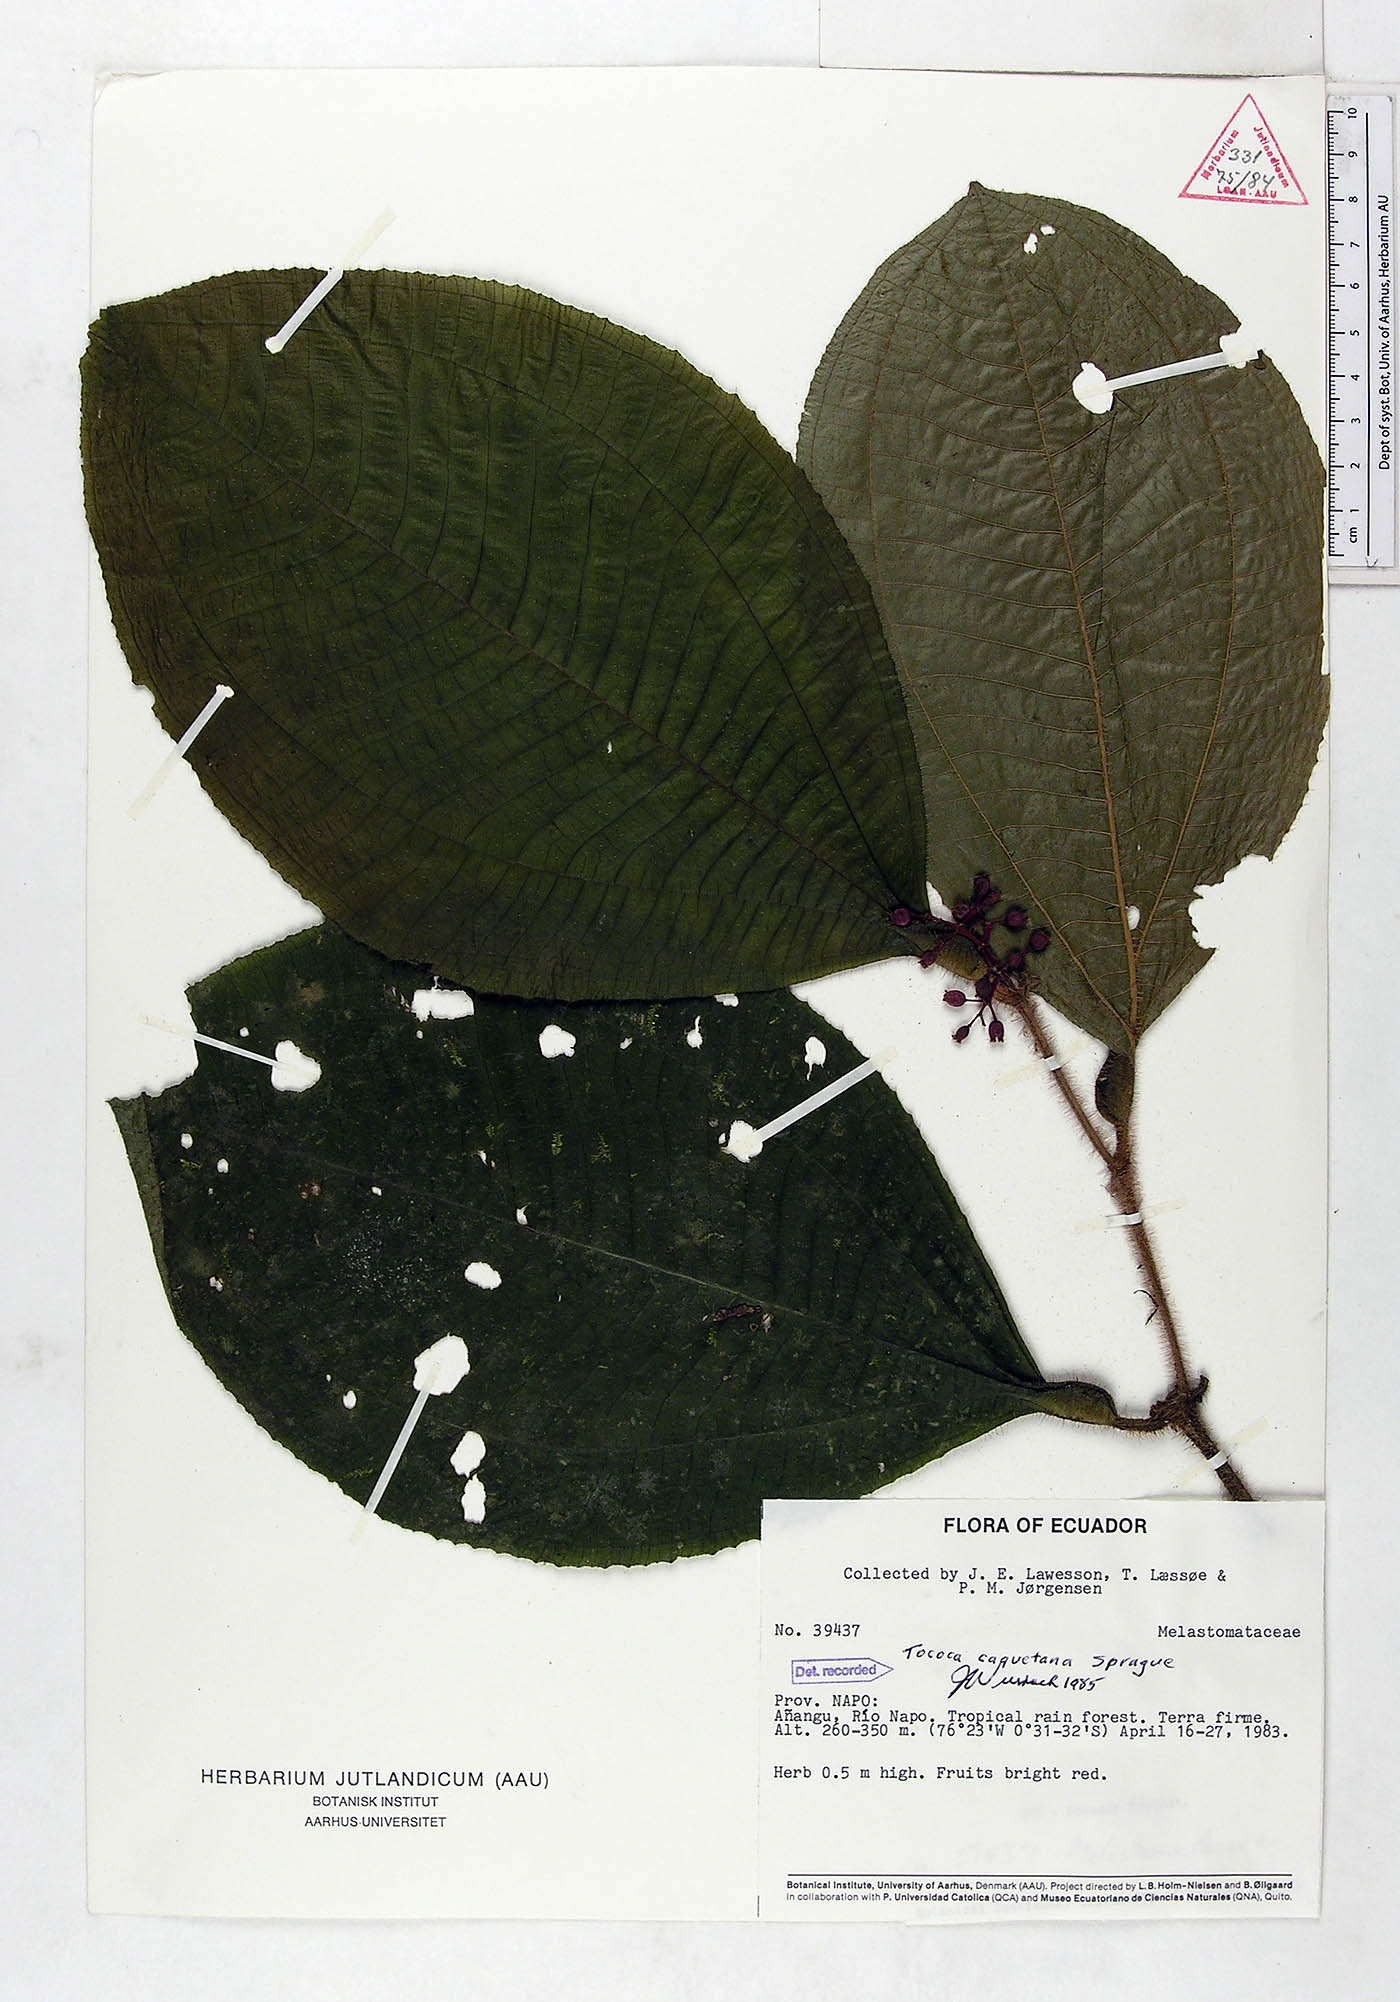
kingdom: Plantae
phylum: Tracheophyta
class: Magnoliopsida
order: Myrtales
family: Melastomataceae
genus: Miconia
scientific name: Miconia caquetana
